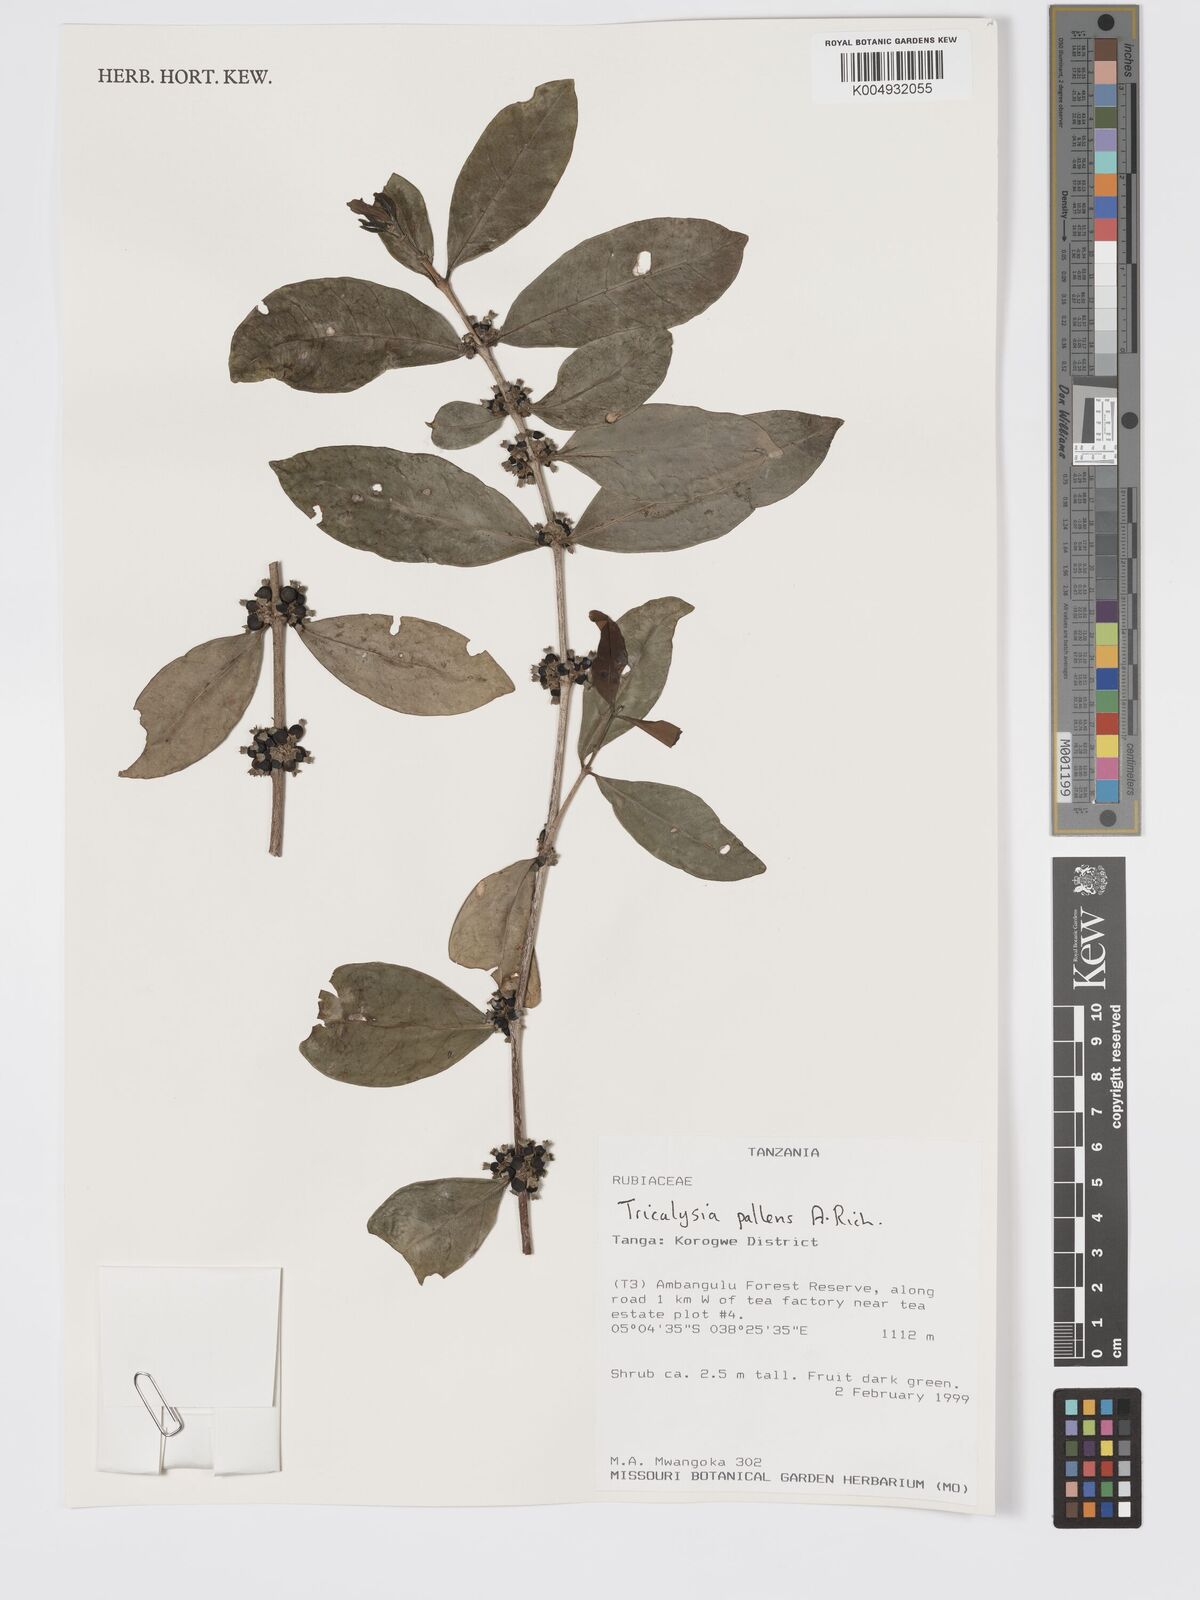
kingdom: Plantae
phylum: Tracheophyta
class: Magnoliopsida
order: Gentianales
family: Rubiaceae
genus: Tricalysia
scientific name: Tricalysia pallens
